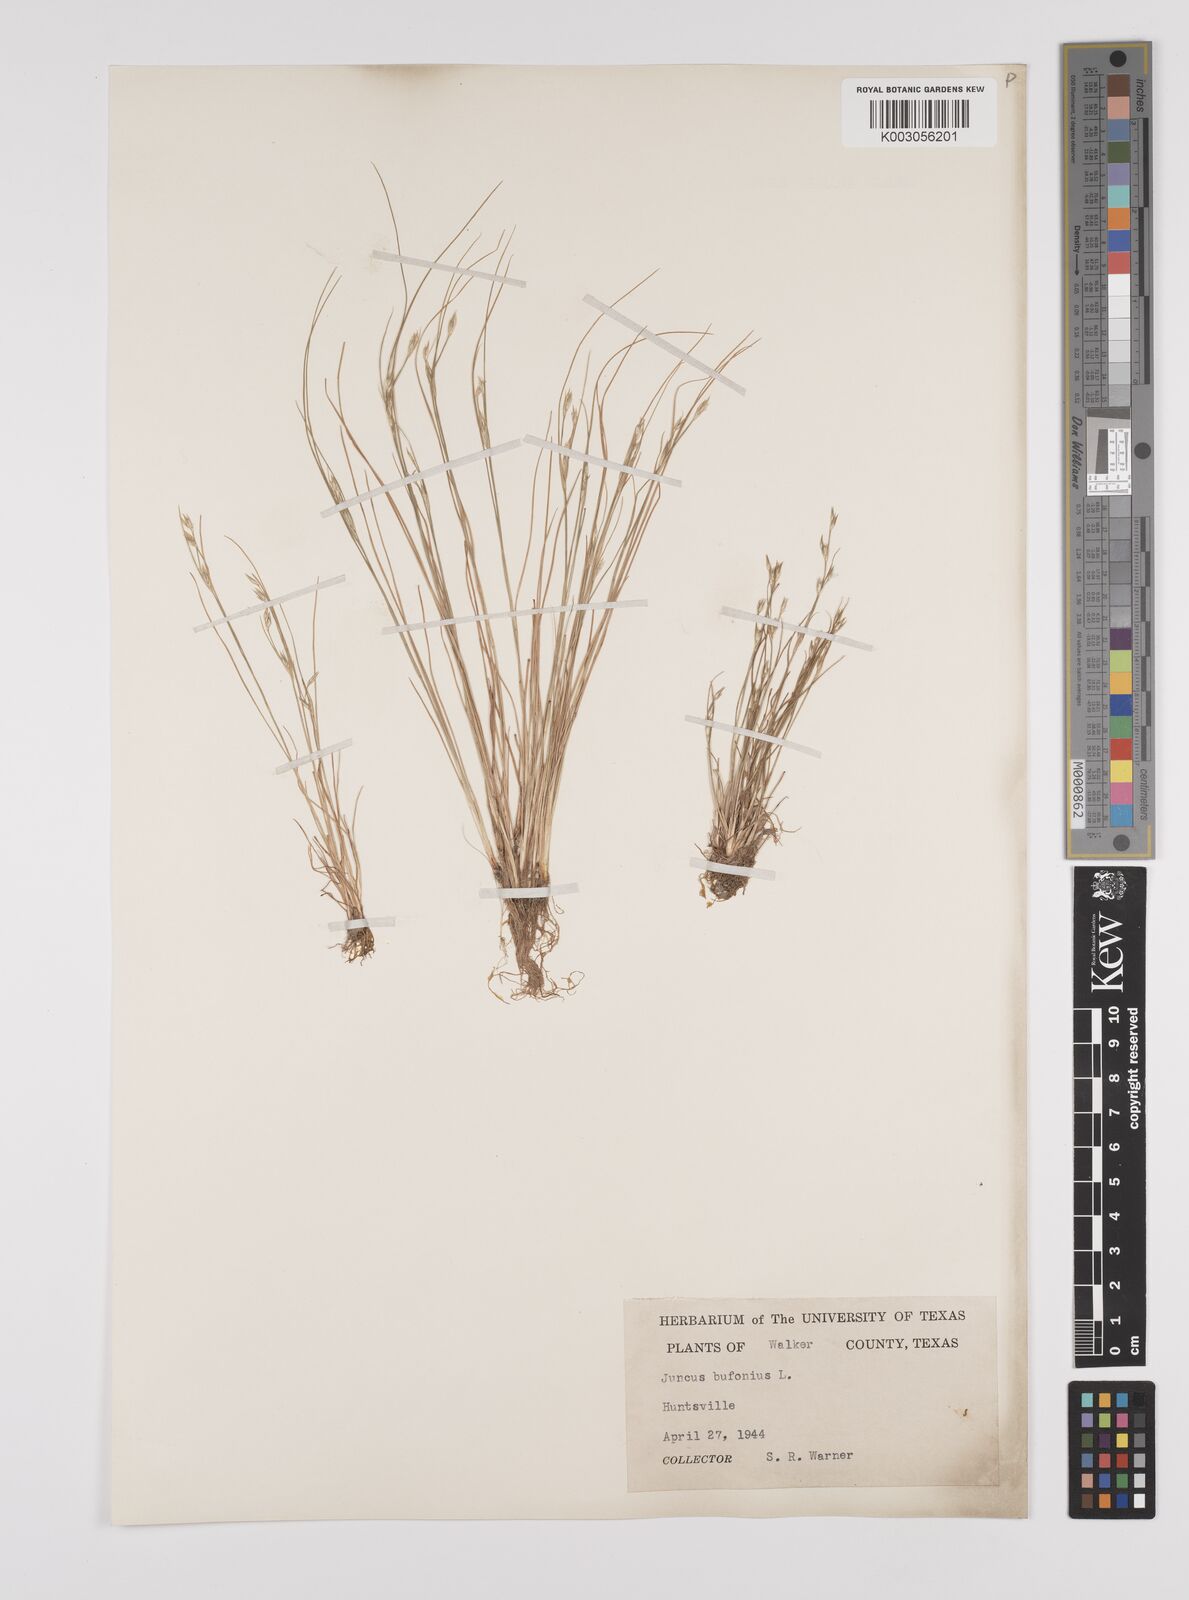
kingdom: Plantae
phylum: Tracheophyta
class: Liliopsida
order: Poales
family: Juncaceae
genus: Juncus
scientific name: Juncus bufonius
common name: Toad rush
